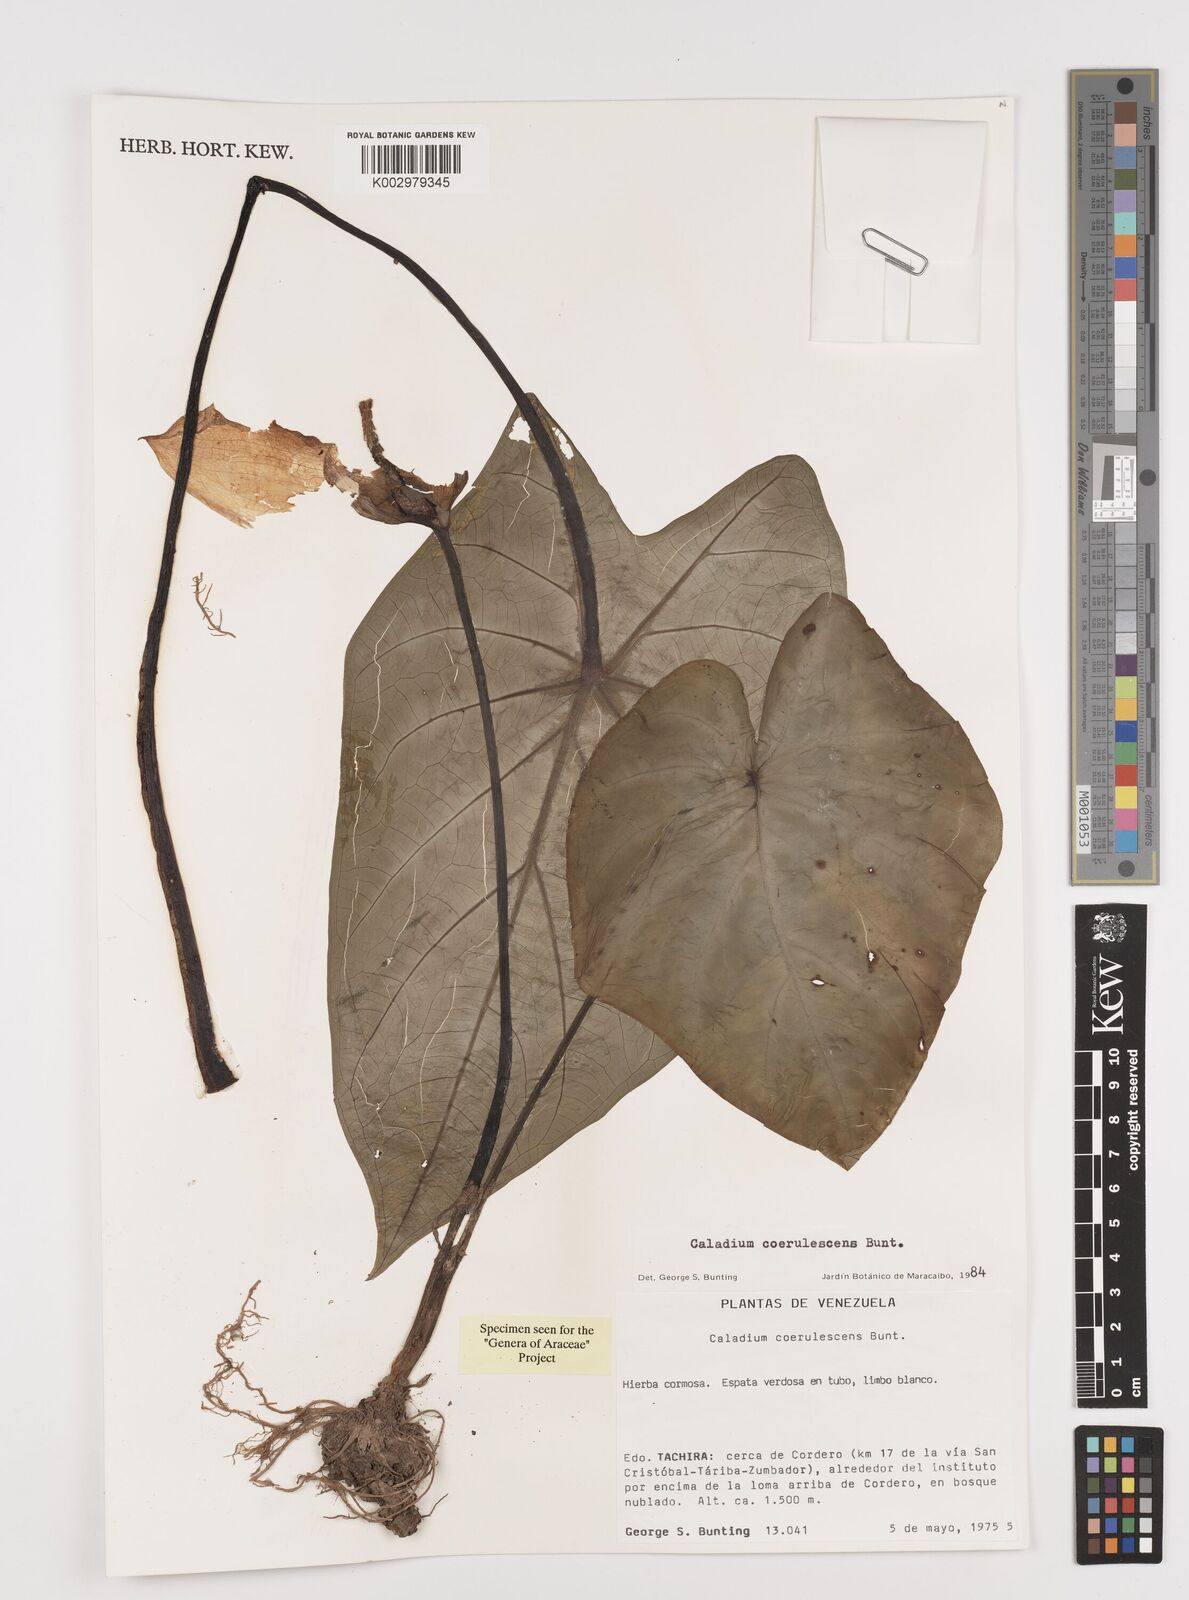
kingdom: Plantae
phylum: Tracheophyta
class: Liliopsida
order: Alismatales
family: Araceae
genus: Caladium
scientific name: Caladium coerulescens
